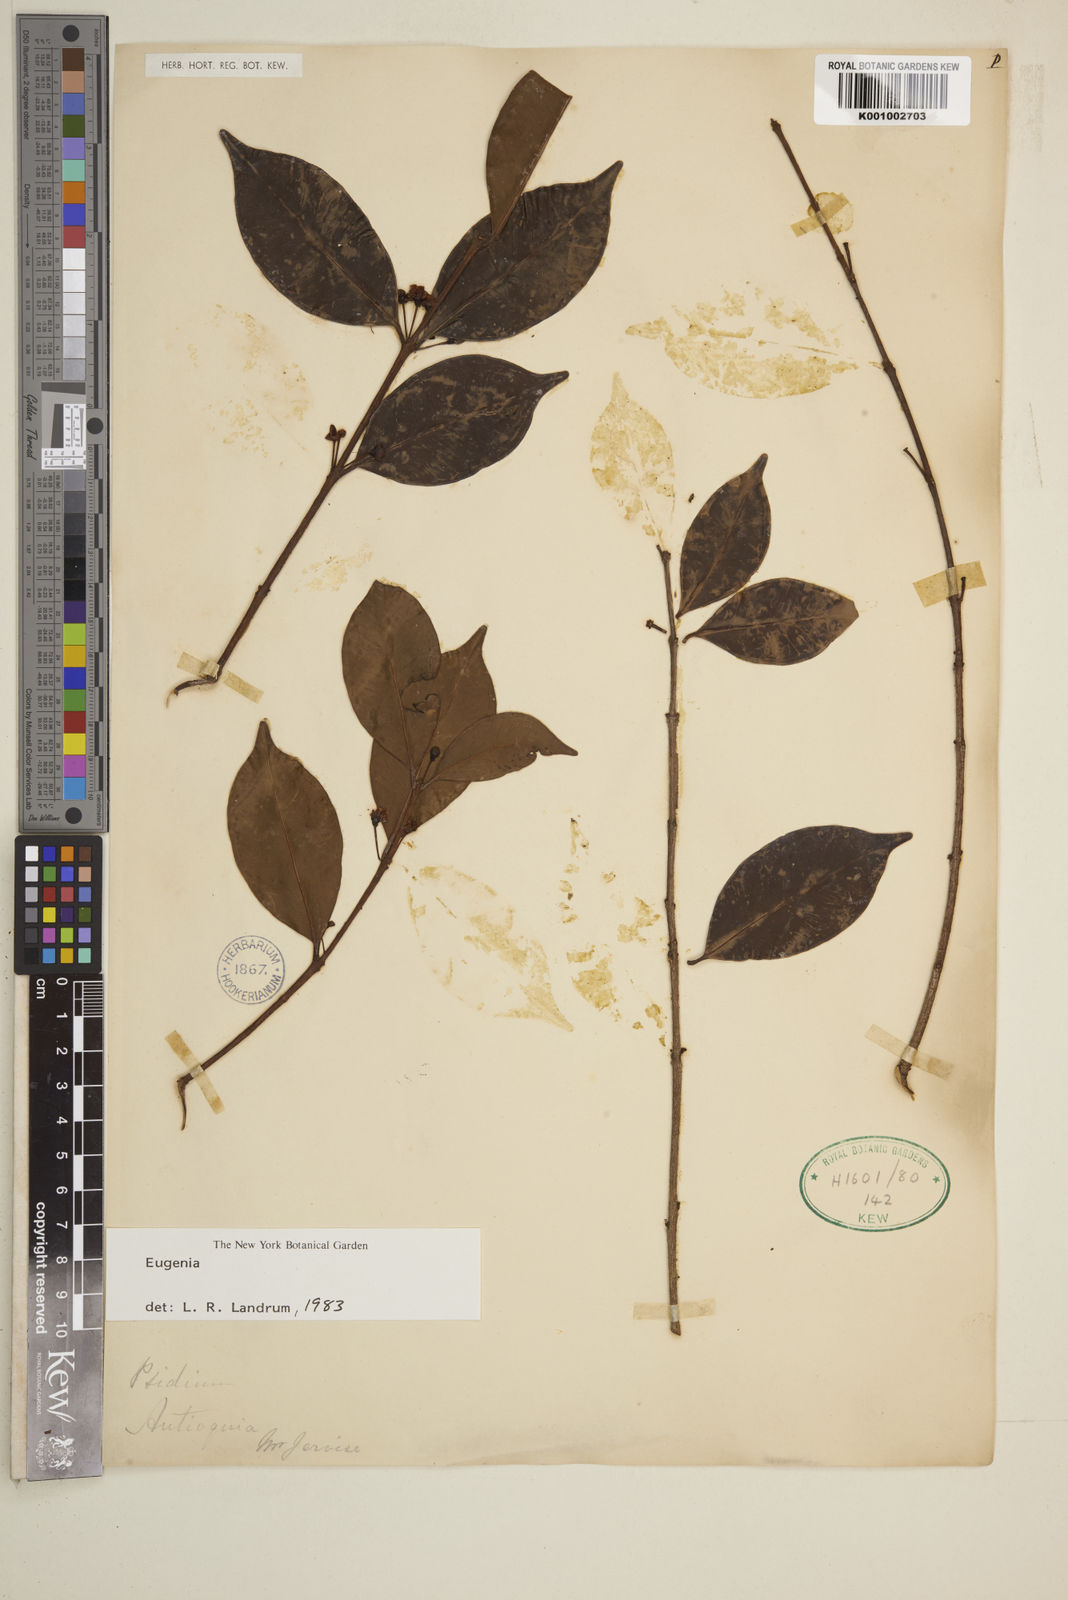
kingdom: Plantae
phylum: Tracheophyta
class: Magnoliopsida
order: Myrtales
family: Myrtaceae
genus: Eugenia
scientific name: Eugenia
